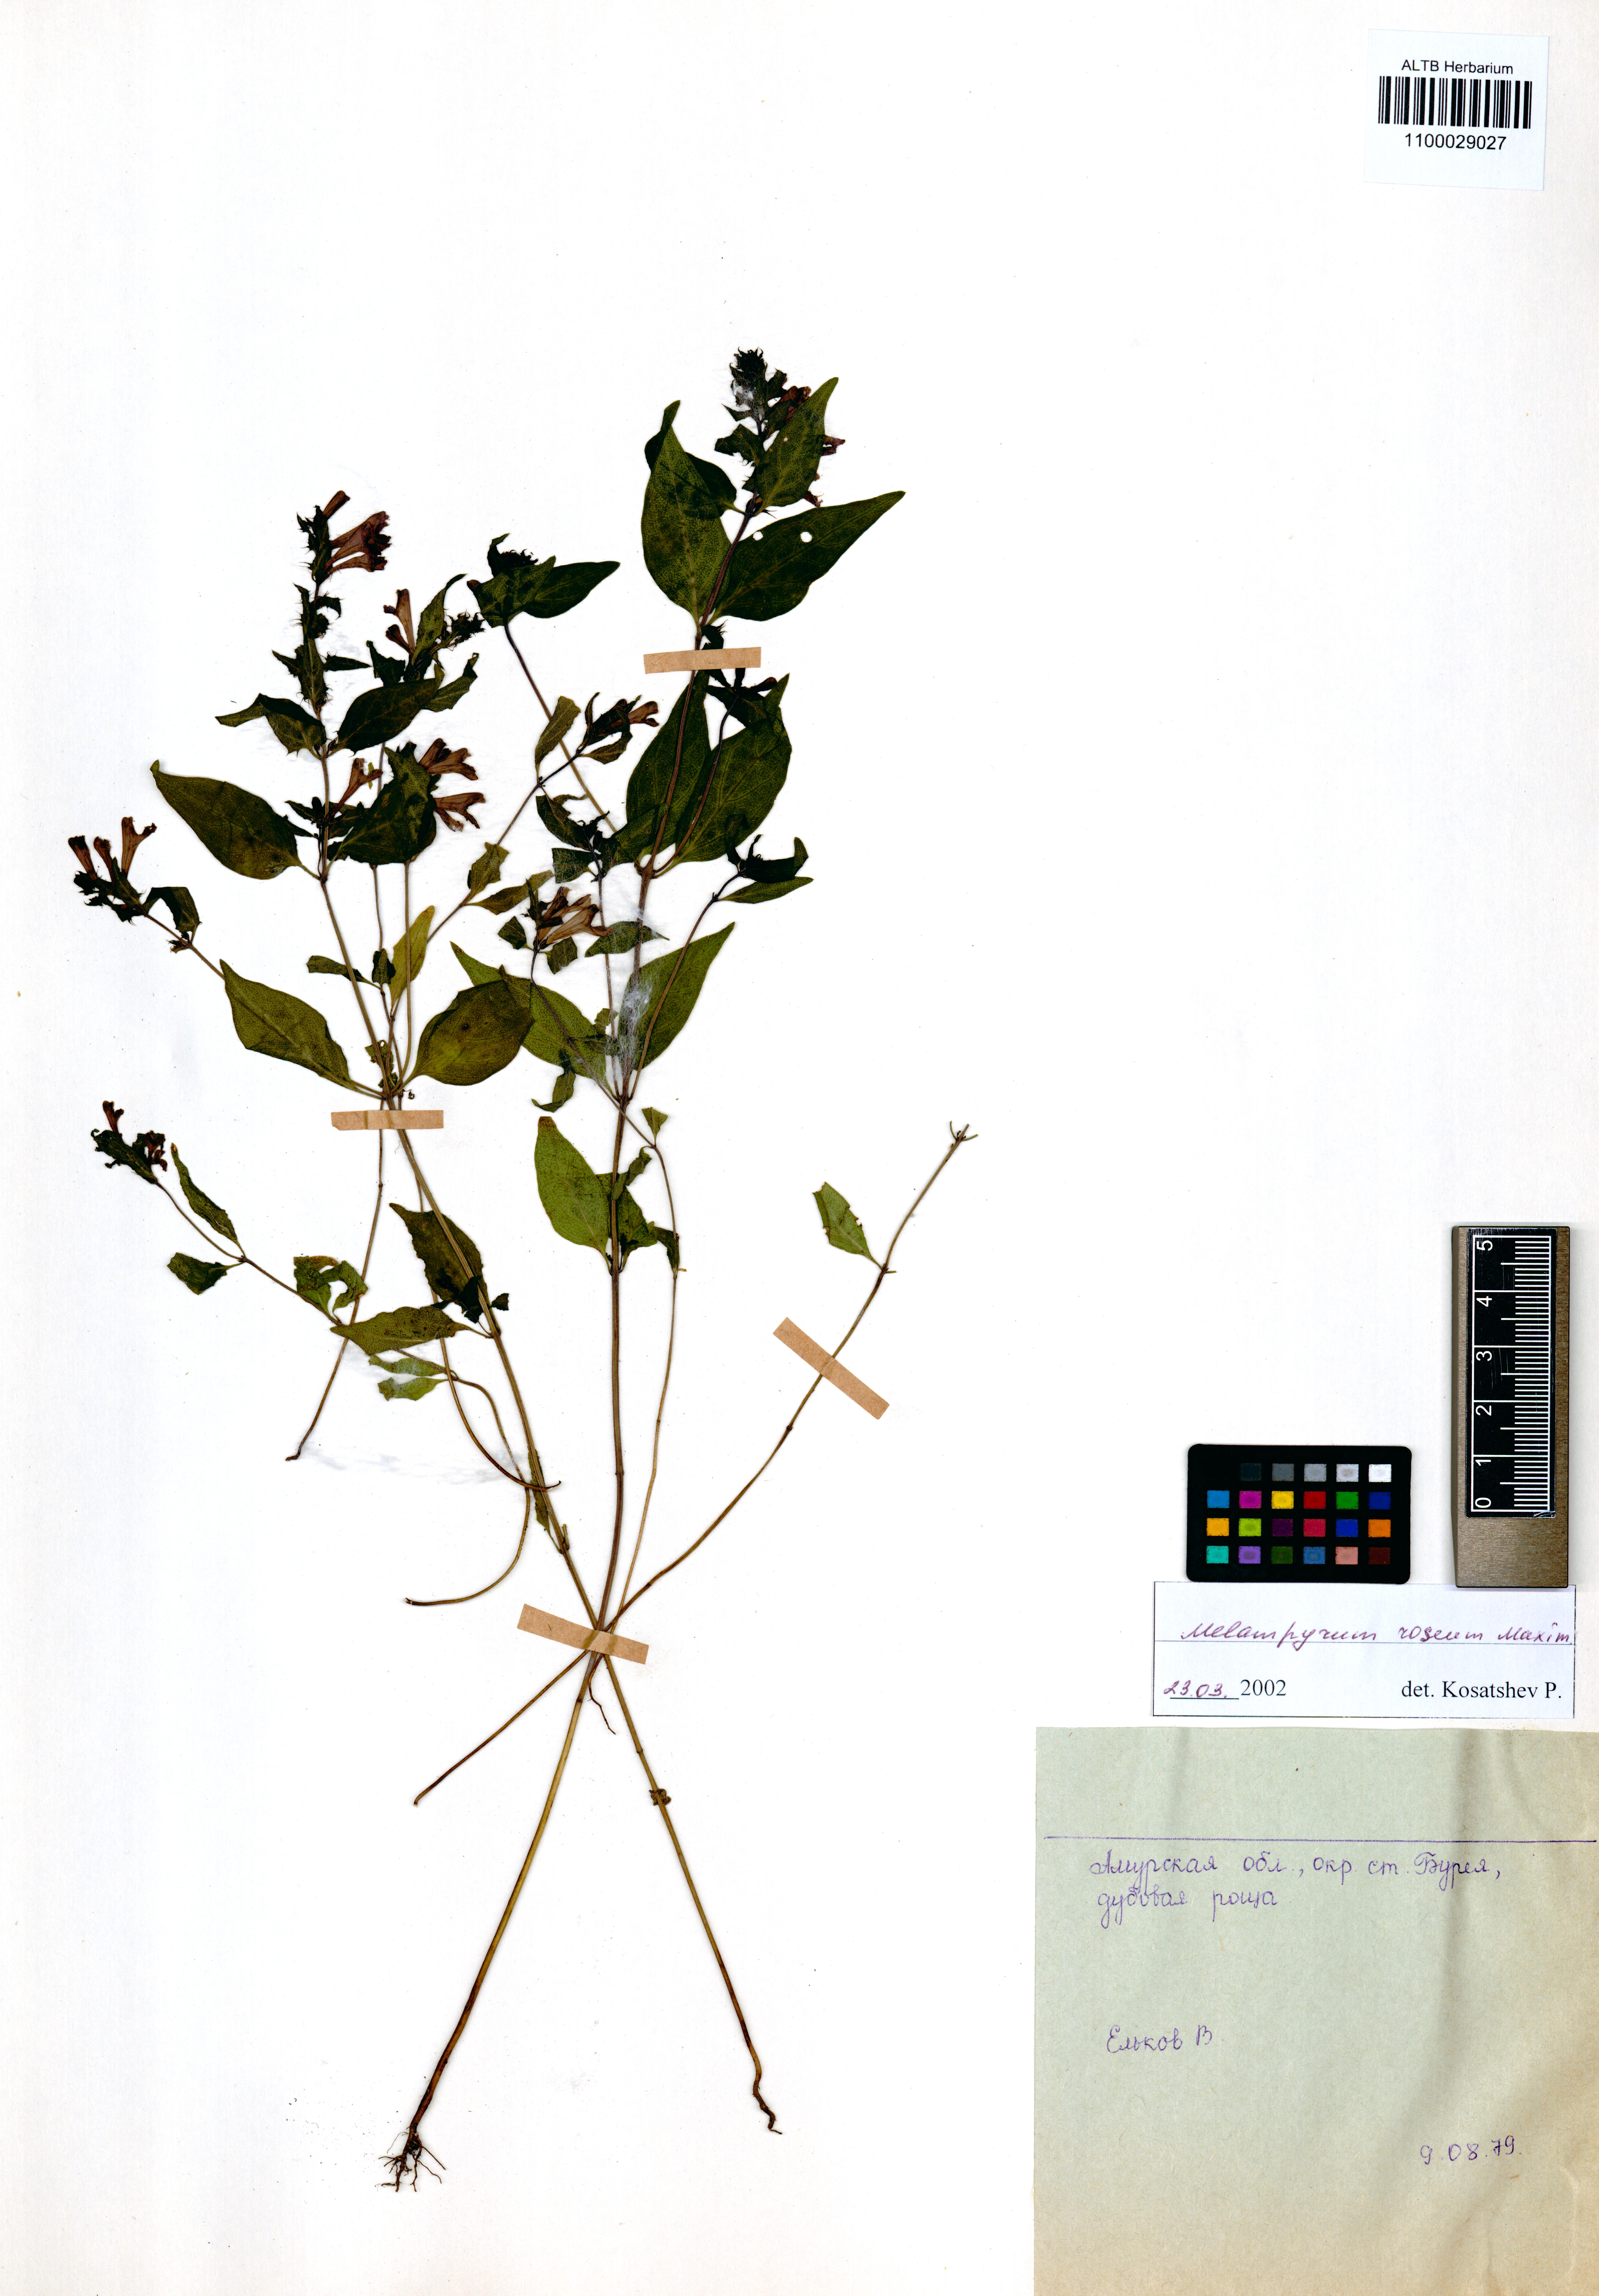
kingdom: Plantae
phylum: Tracheophyta
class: Magnoliopsida
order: Lamiales
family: Orobanchaceae
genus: Melampyrum
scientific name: Melampyrum roseum
